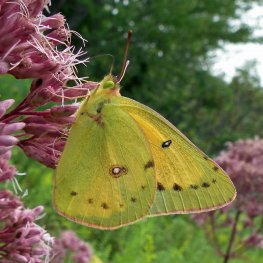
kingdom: Animalia
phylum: Arthropoda
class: Insecta
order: Lepidoptera
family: Pieridae
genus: Colias
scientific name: Colias eurytheme
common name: Orange Sulphur
